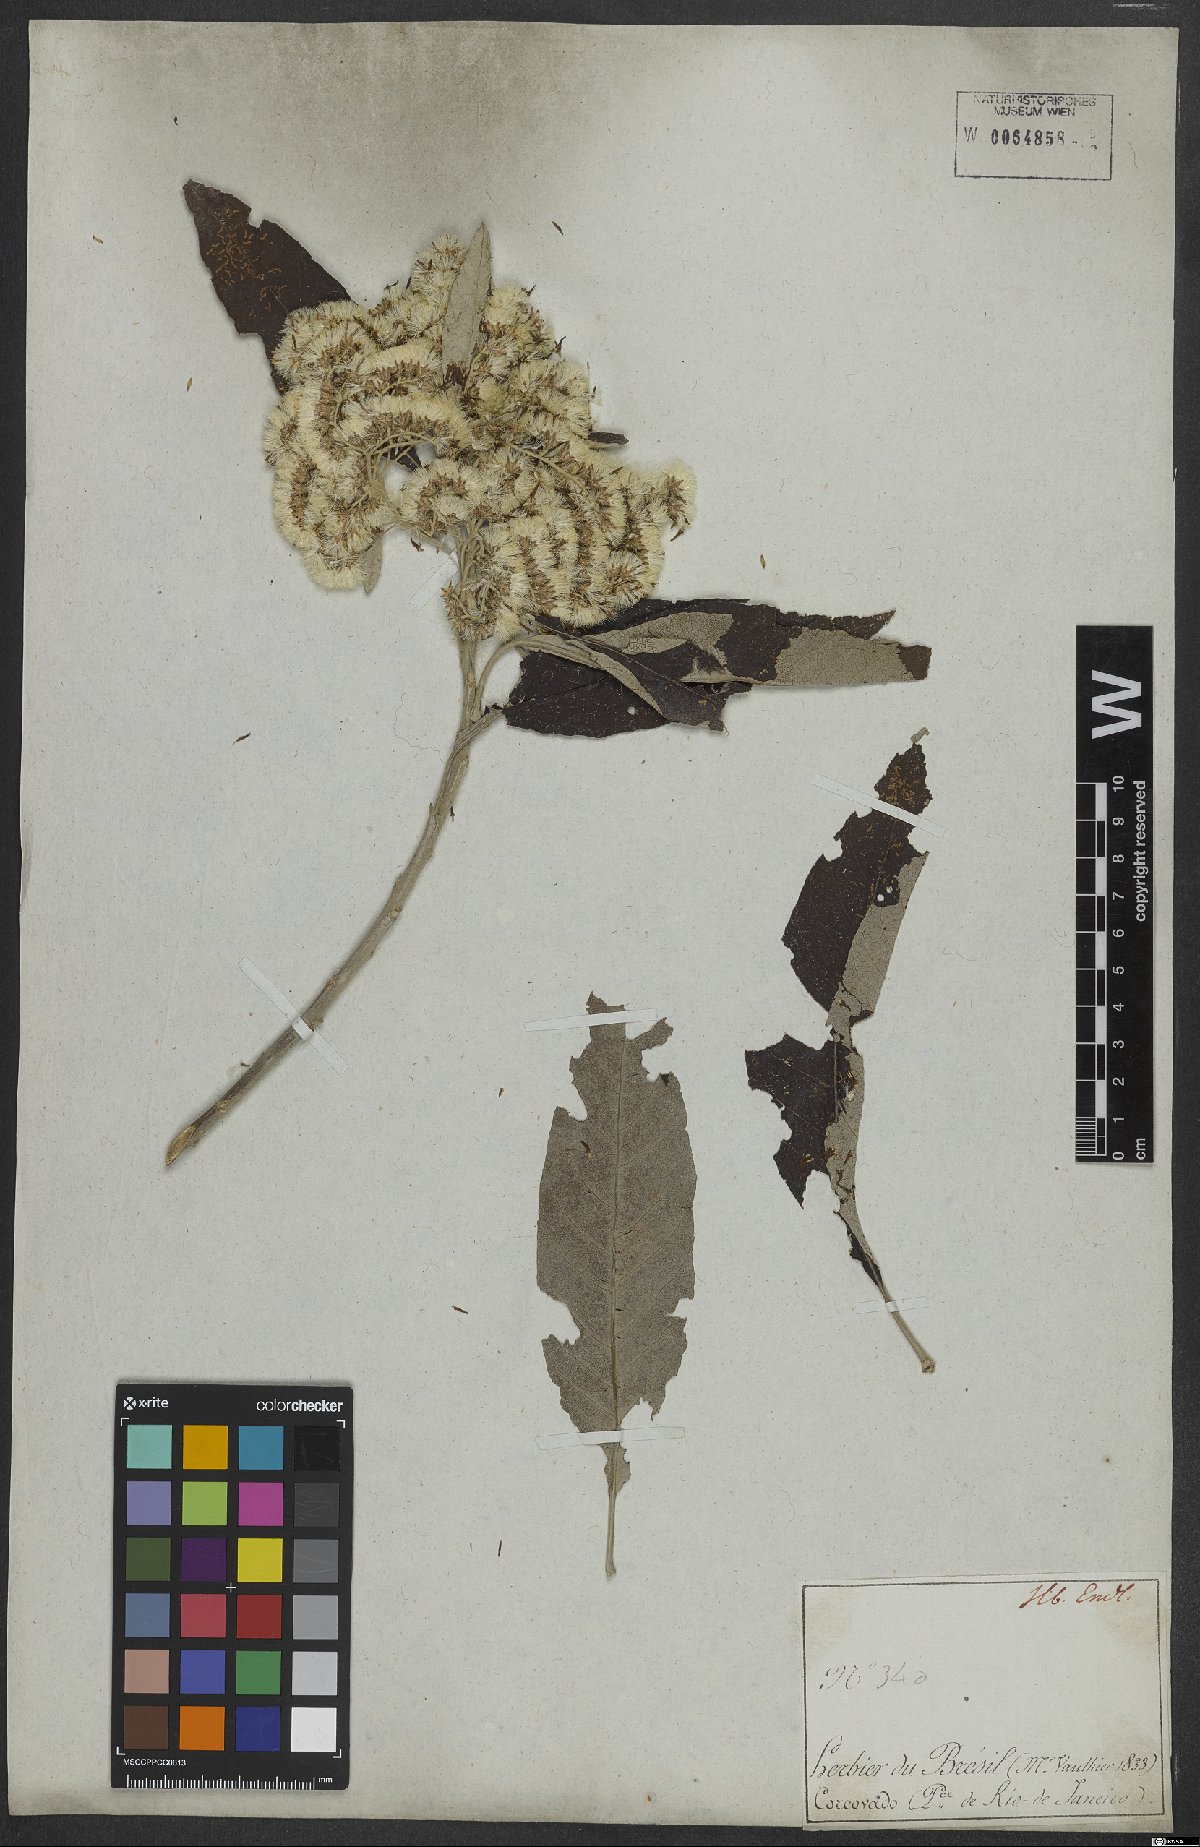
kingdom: Plantae
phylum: Tracheophyta
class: Magnoliopsida
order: Asterales
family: Asteraceae
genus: Vernonanthura
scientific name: Vernonanthura petiolaris
